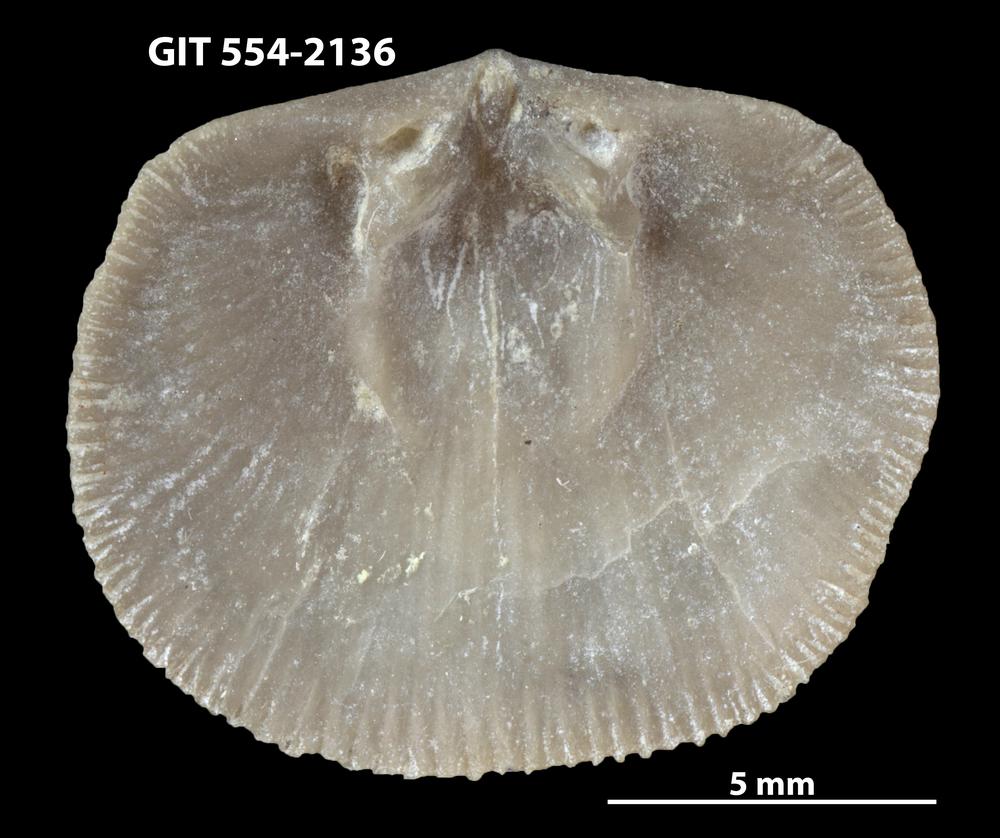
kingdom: Animalia
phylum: Brachiopoda
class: Rhynchonellata
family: Dalmanellidae
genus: Levenea
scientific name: Levenea Orthis canaliculata
